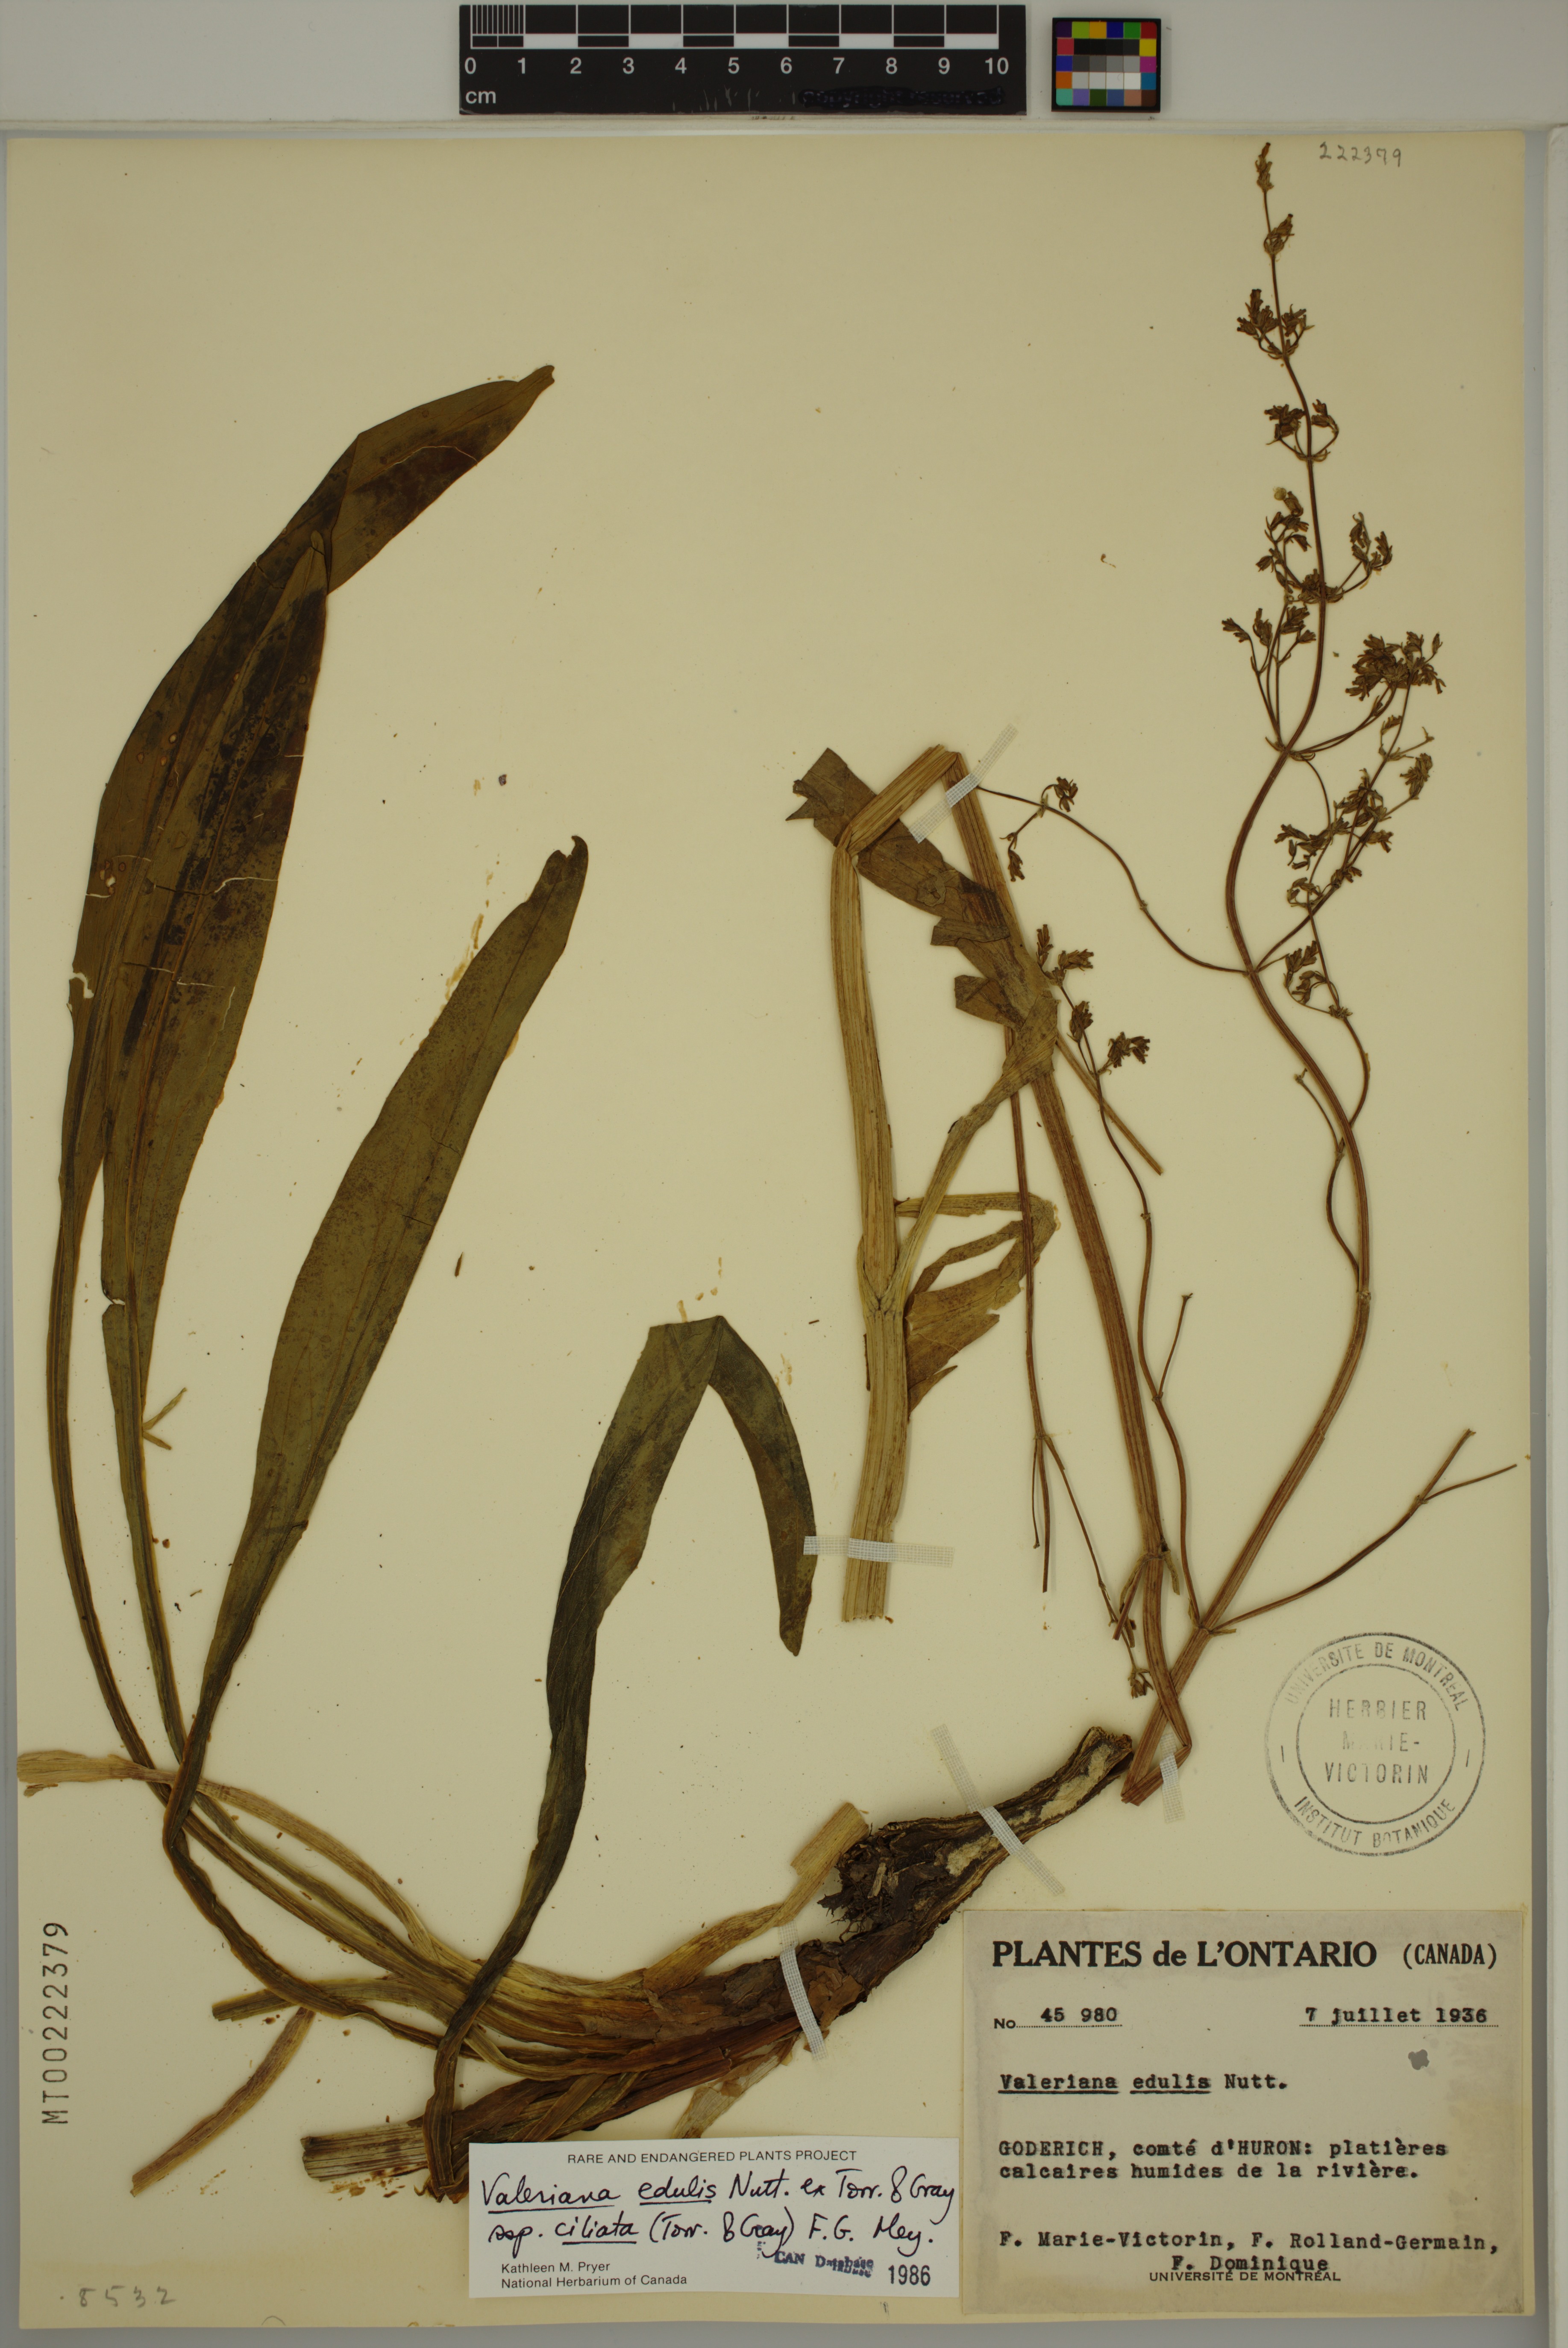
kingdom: Plantae
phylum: Tracheophyta
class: Magnoliopsida
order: Dipsacales
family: Caprifoliaceae
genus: Valeriana
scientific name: Valeriana edulis
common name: Taproot valerian
